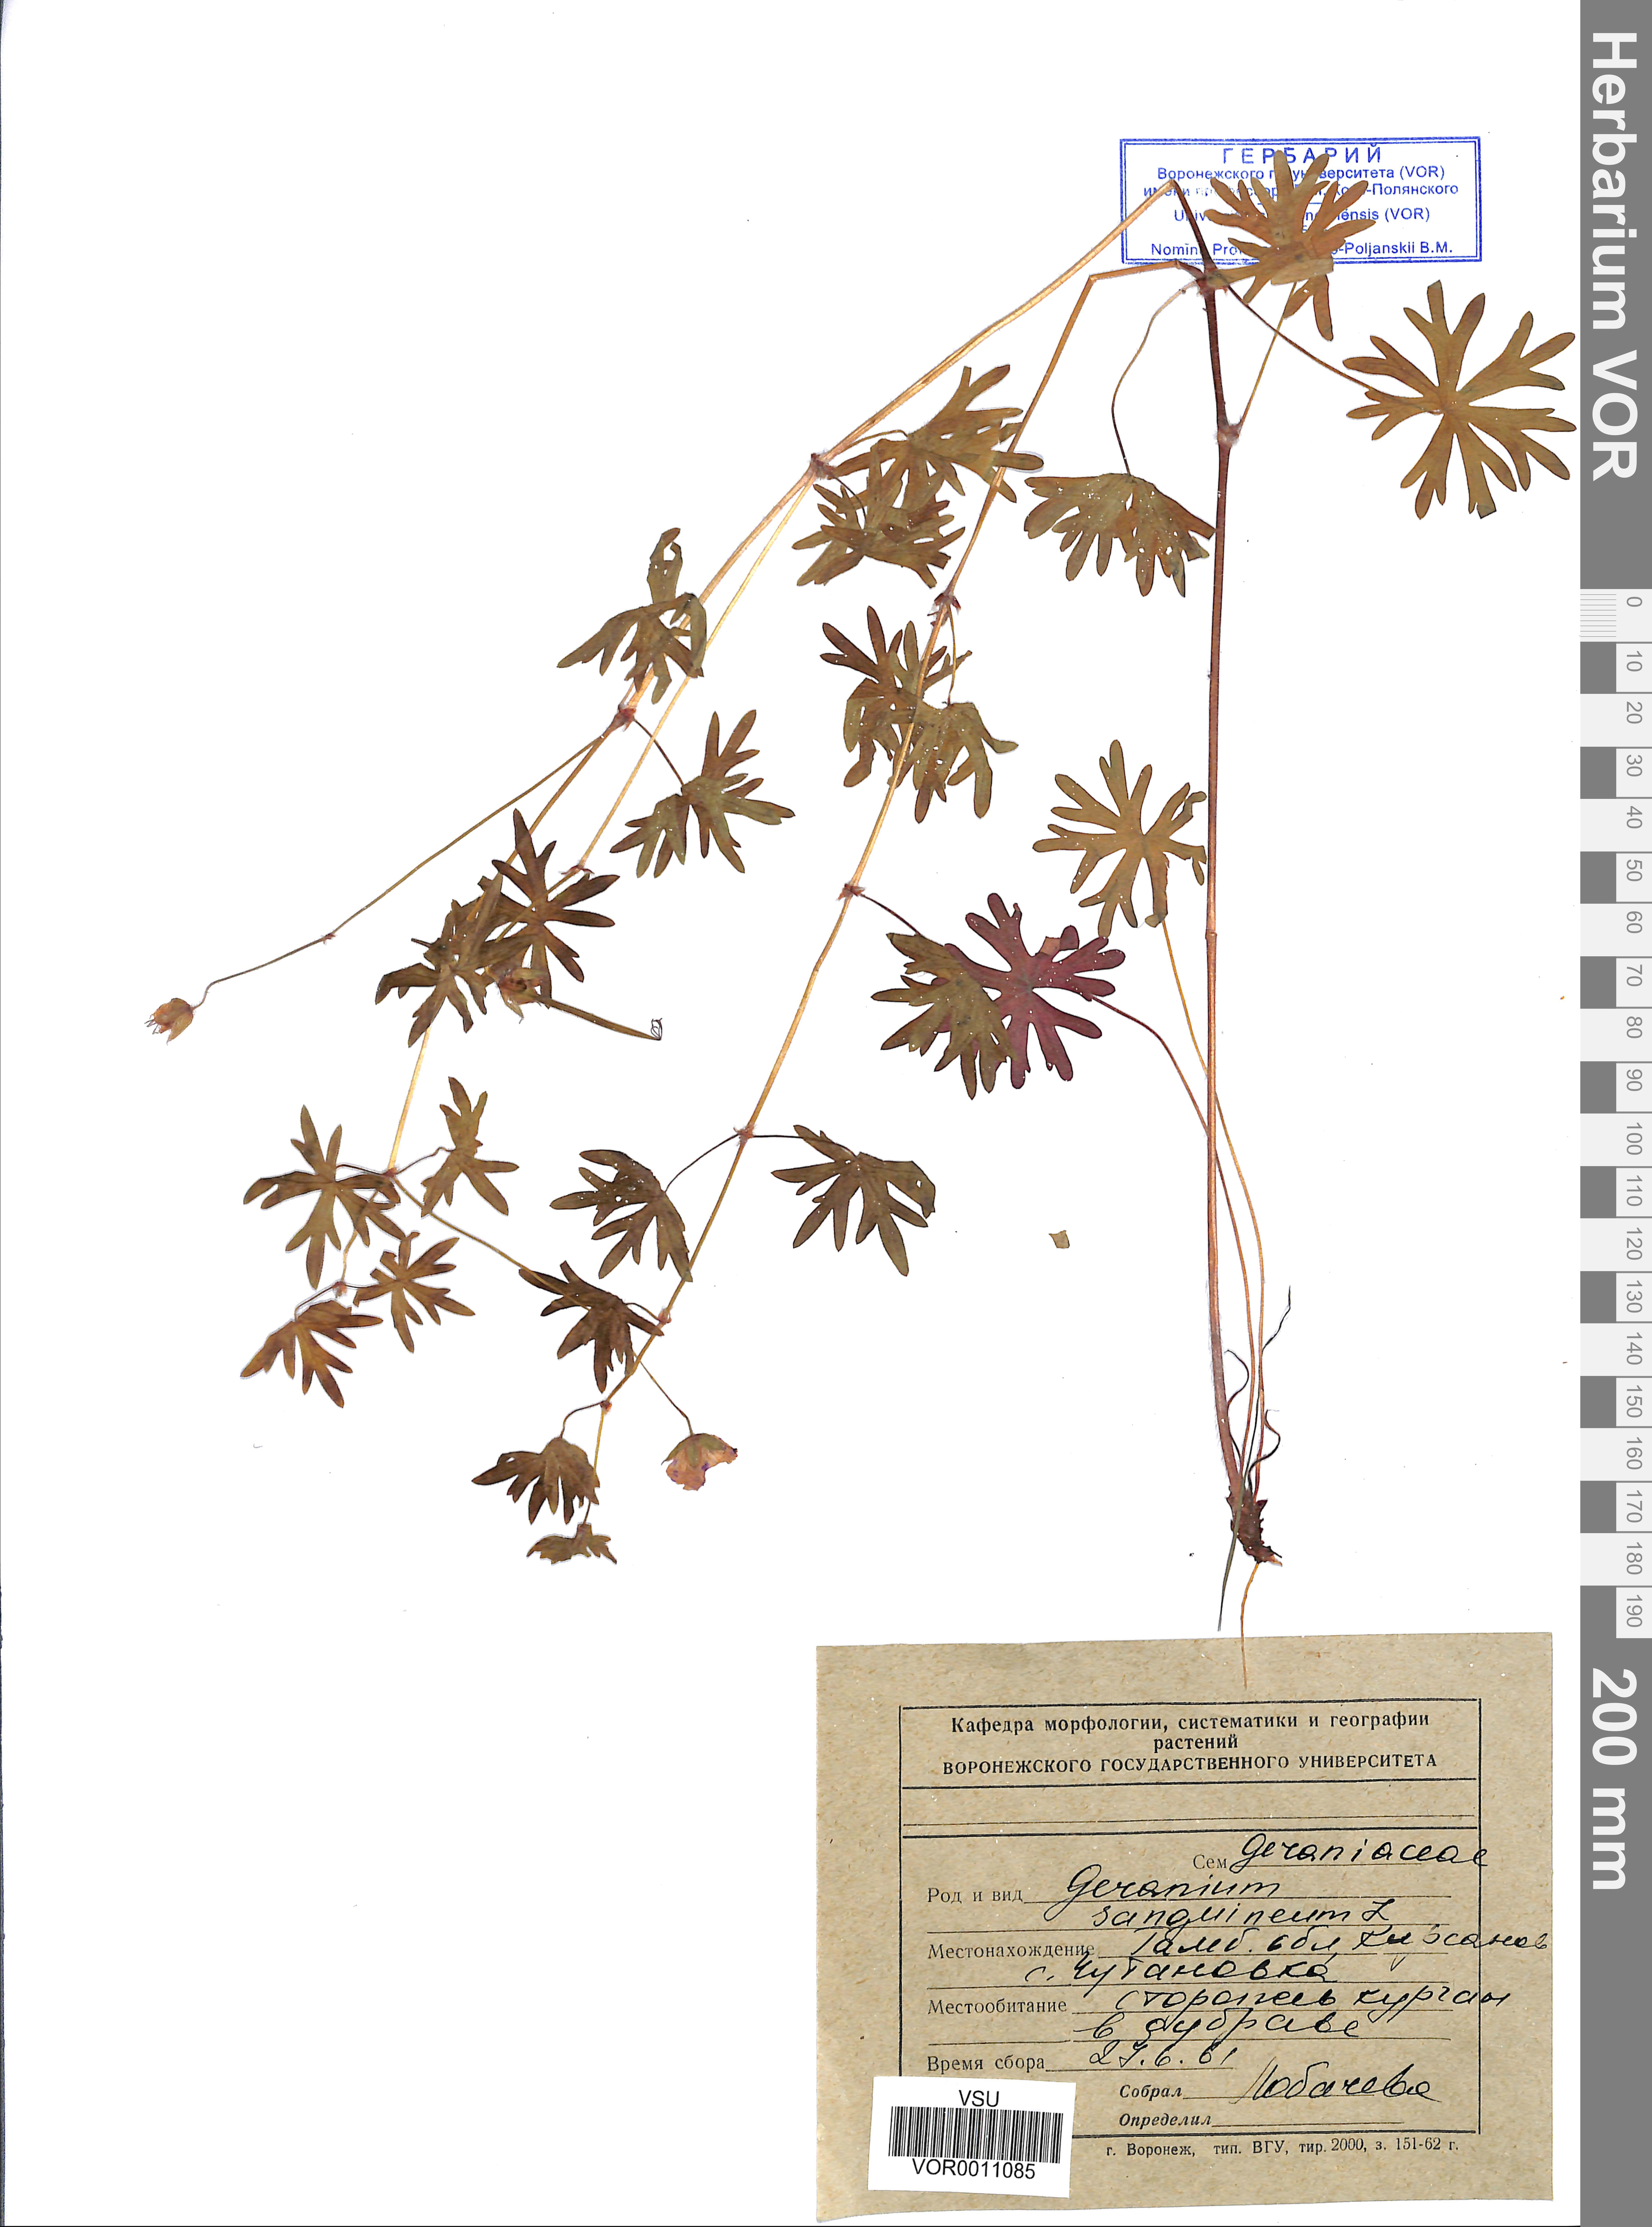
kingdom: Plantae
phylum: Tracheophyta
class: Magnoliopsida
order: Geraniales
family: Geraniaceae
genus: Geranium
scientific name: Geranium sanguineum
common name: Bloody crane's-bill
